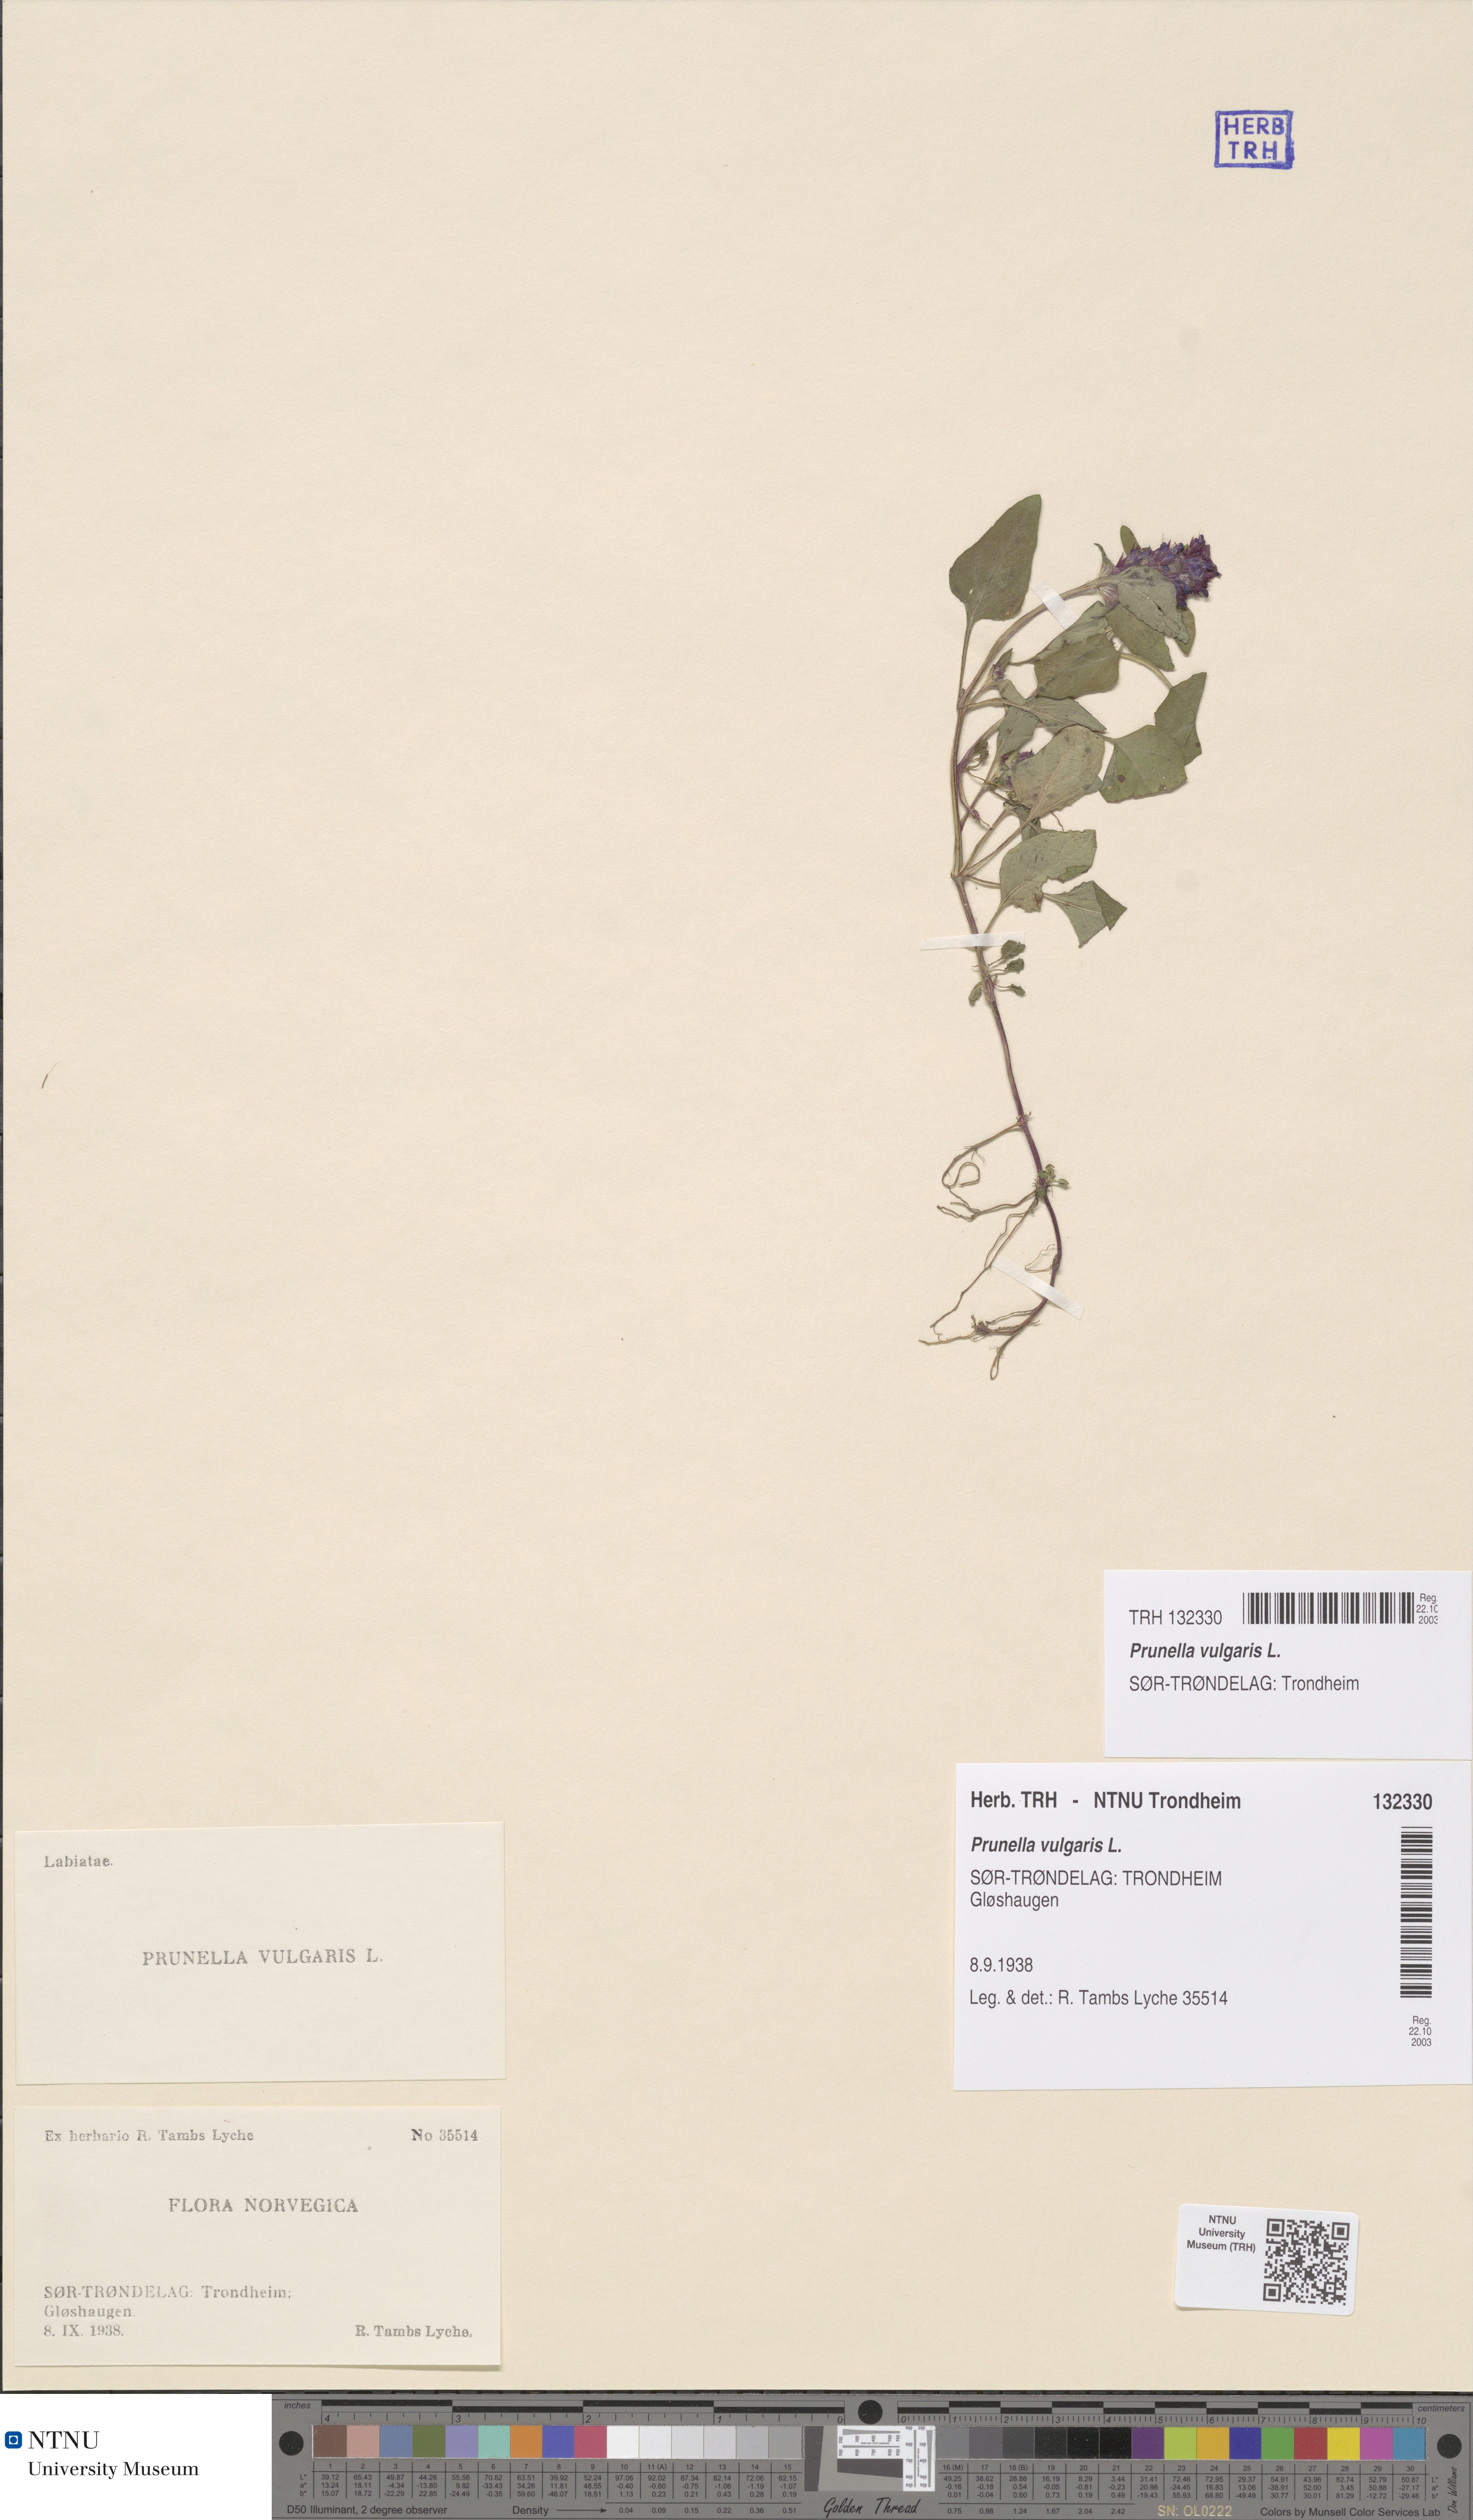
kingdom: Plantae
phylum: Tracheophyta
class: Magnoliopsida
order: Lamiales
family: Lamiaceae
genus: Prunella
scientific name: Prunella vulgaris
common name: Heal-all
